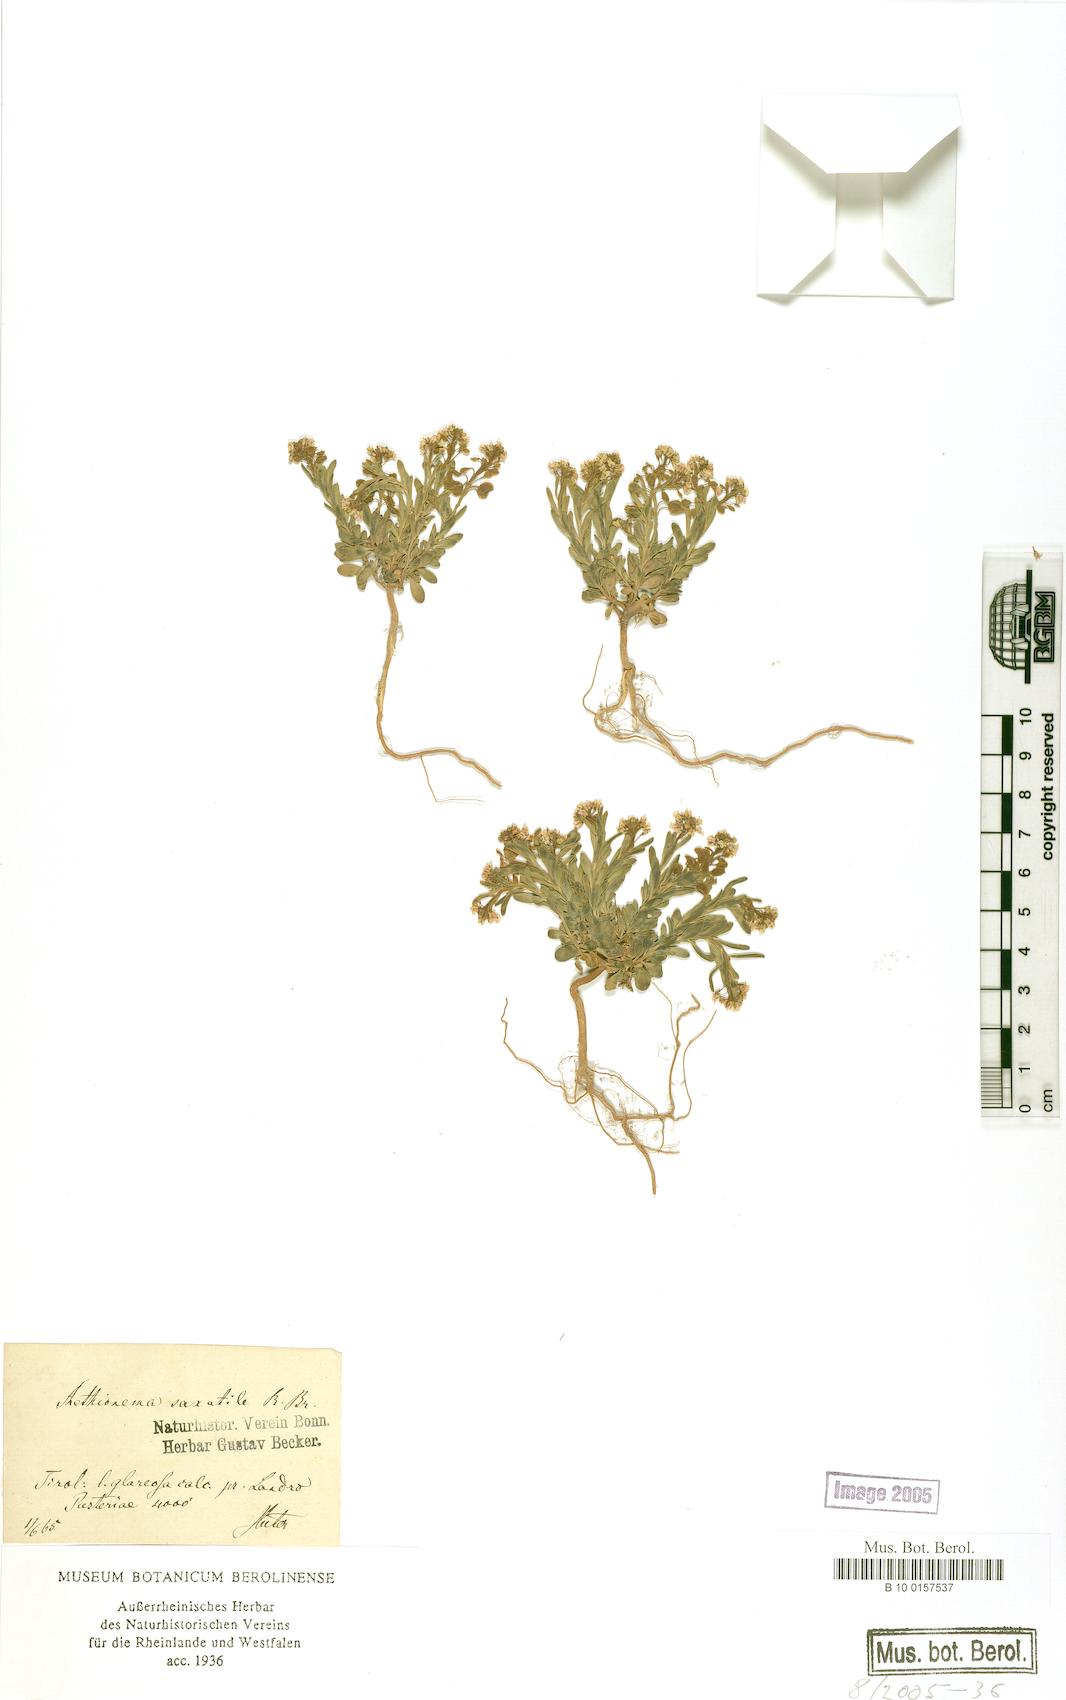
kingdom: Plantae
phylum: Tracheophyta
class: Magnoliopsida
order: Brassicales
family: Brassicaceae
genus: Aethionema
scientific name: Aethionema saxatile
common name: Burnt candytuft
